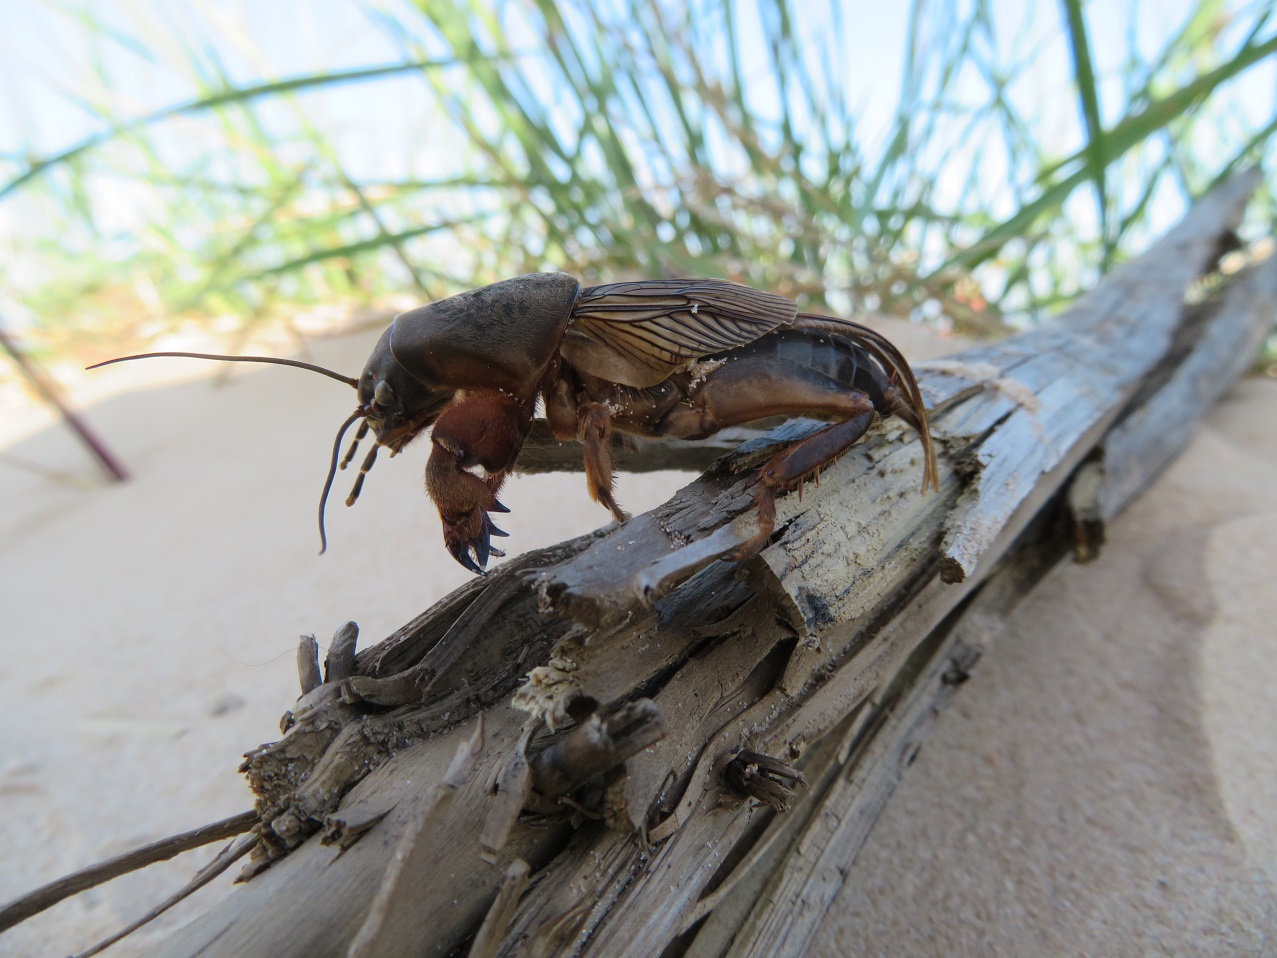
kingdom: Animalia
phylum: Arthropoda
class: Insecta
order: Orthoptera
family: Gryllotalpidae
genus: Gryllotalpa
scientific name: Gryllotalpa gryllotalpa
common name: European mole cricket
